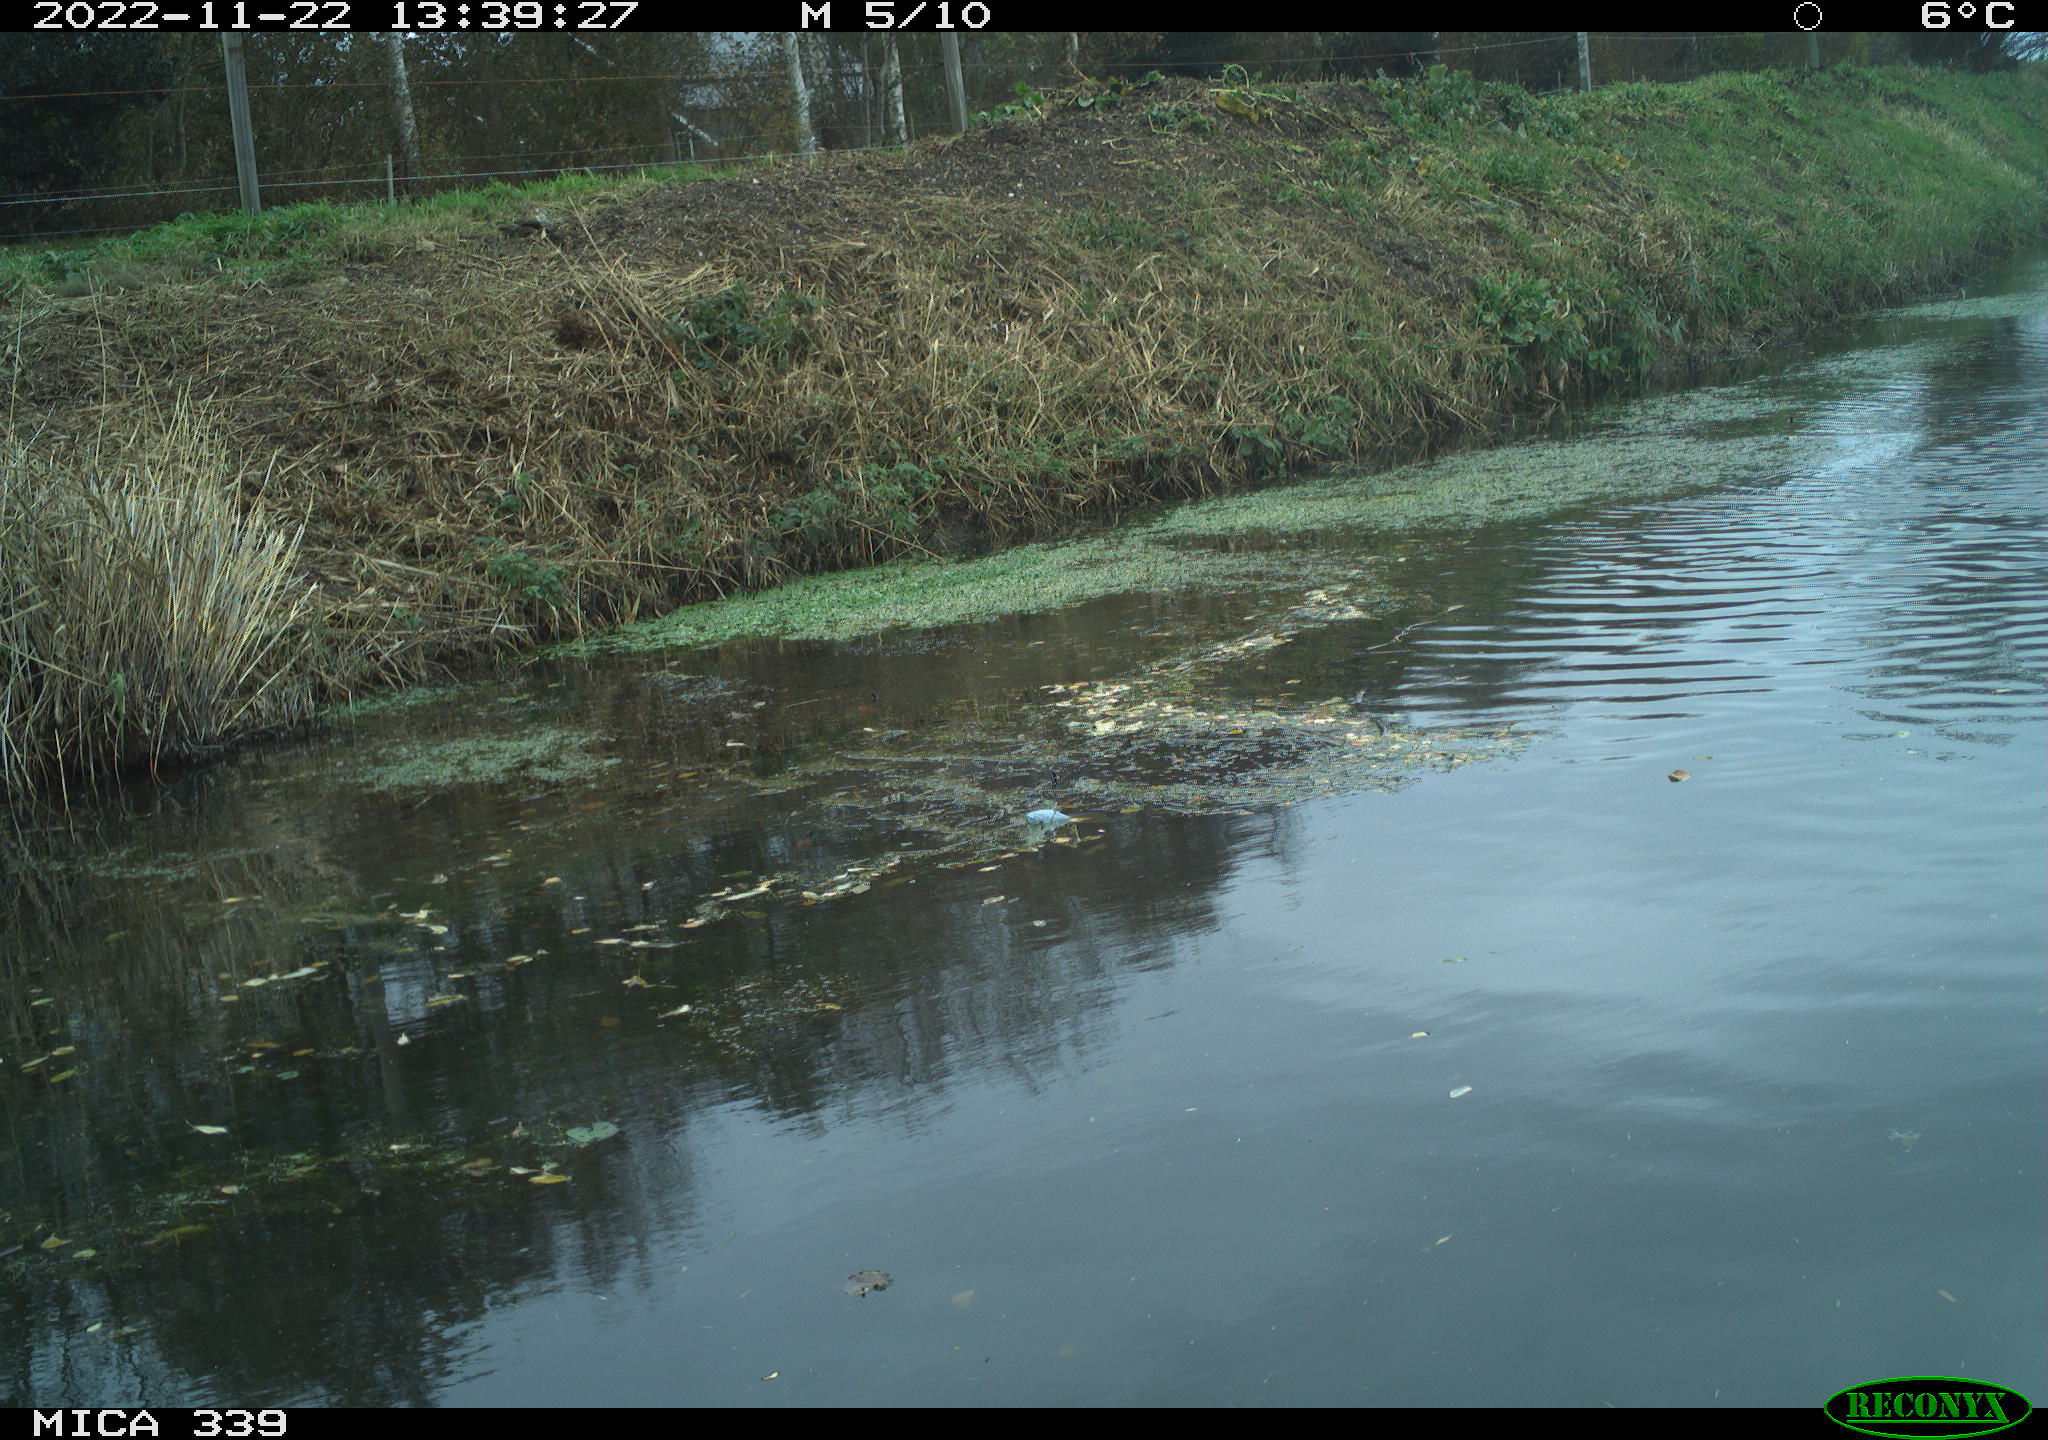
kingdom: Animalia
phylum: Chordata
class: Aves
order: Pelecaniformes
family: Ardeidae
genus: Ardea
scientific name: Ardea alba
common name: Great egret
